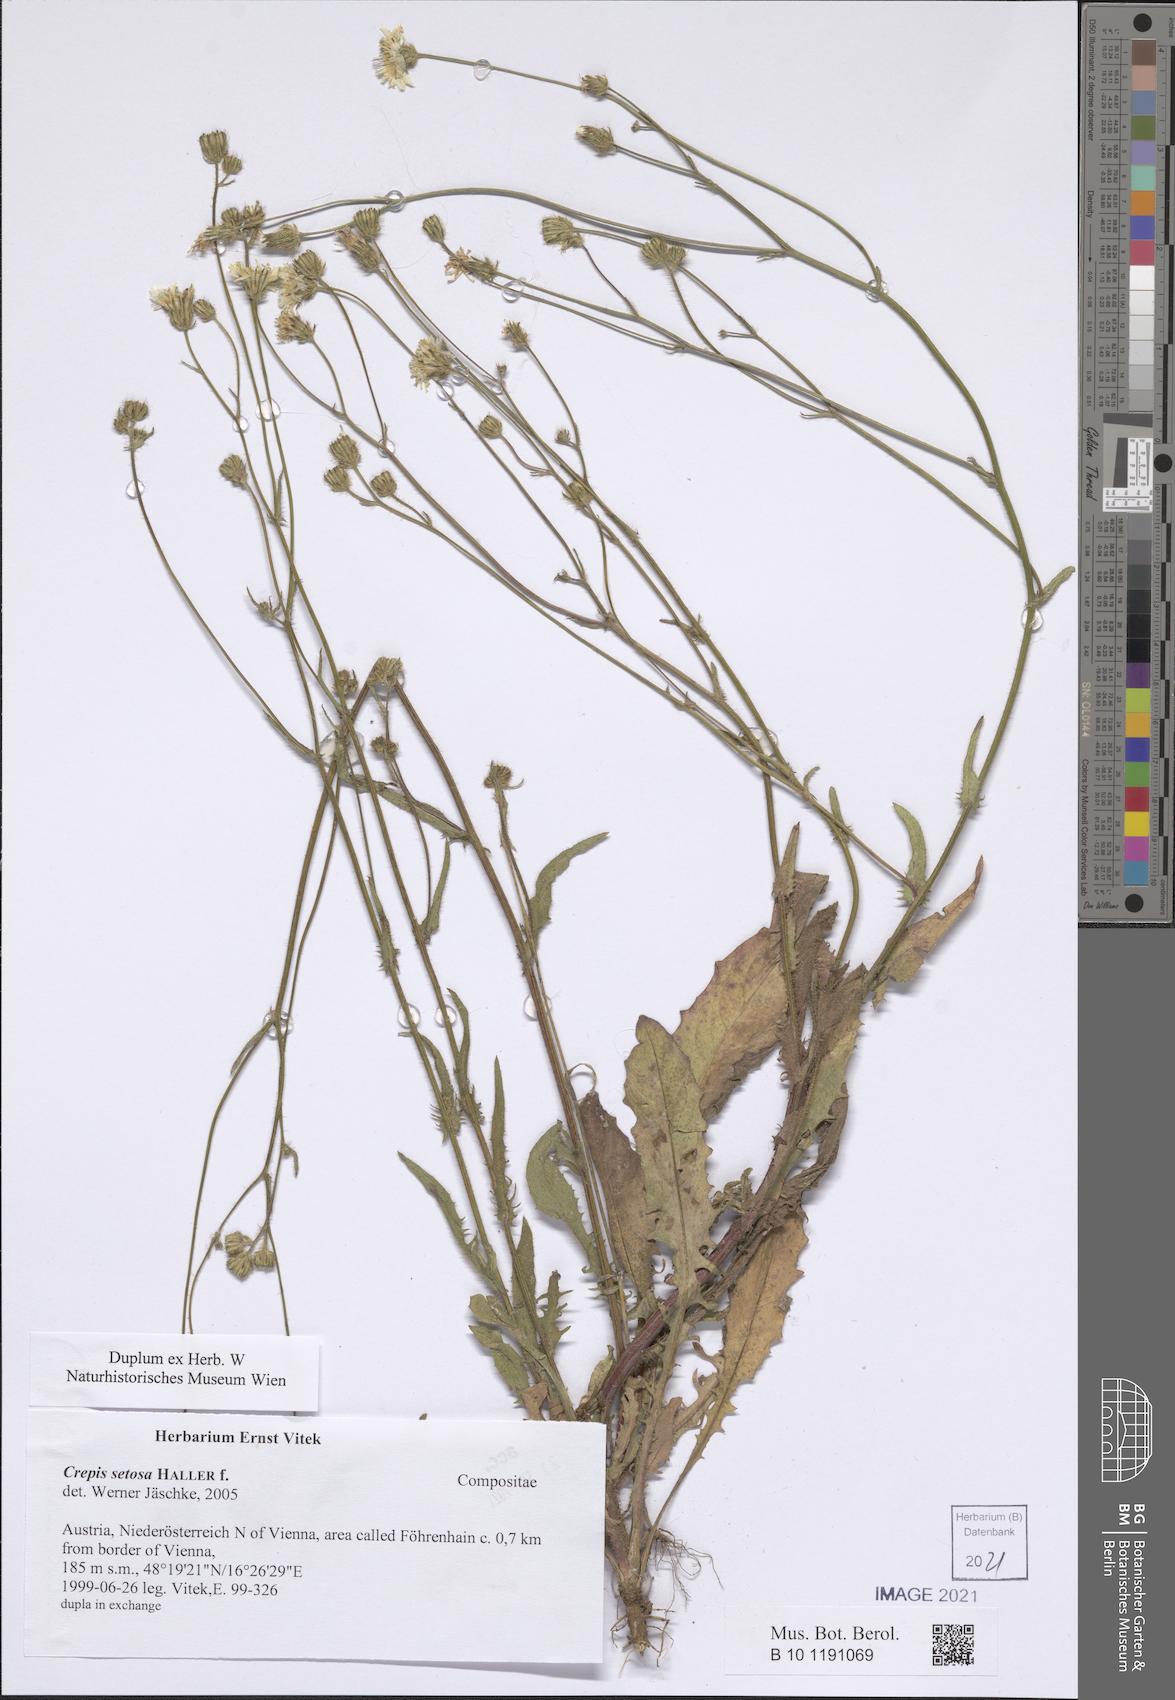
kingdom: Plantae
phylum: Tracheophyta
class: Magnoliopsida
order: Asterales
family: Asteraceae
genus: Crepis
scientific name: Crepis setosa
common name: Bristly hawk's-beard
